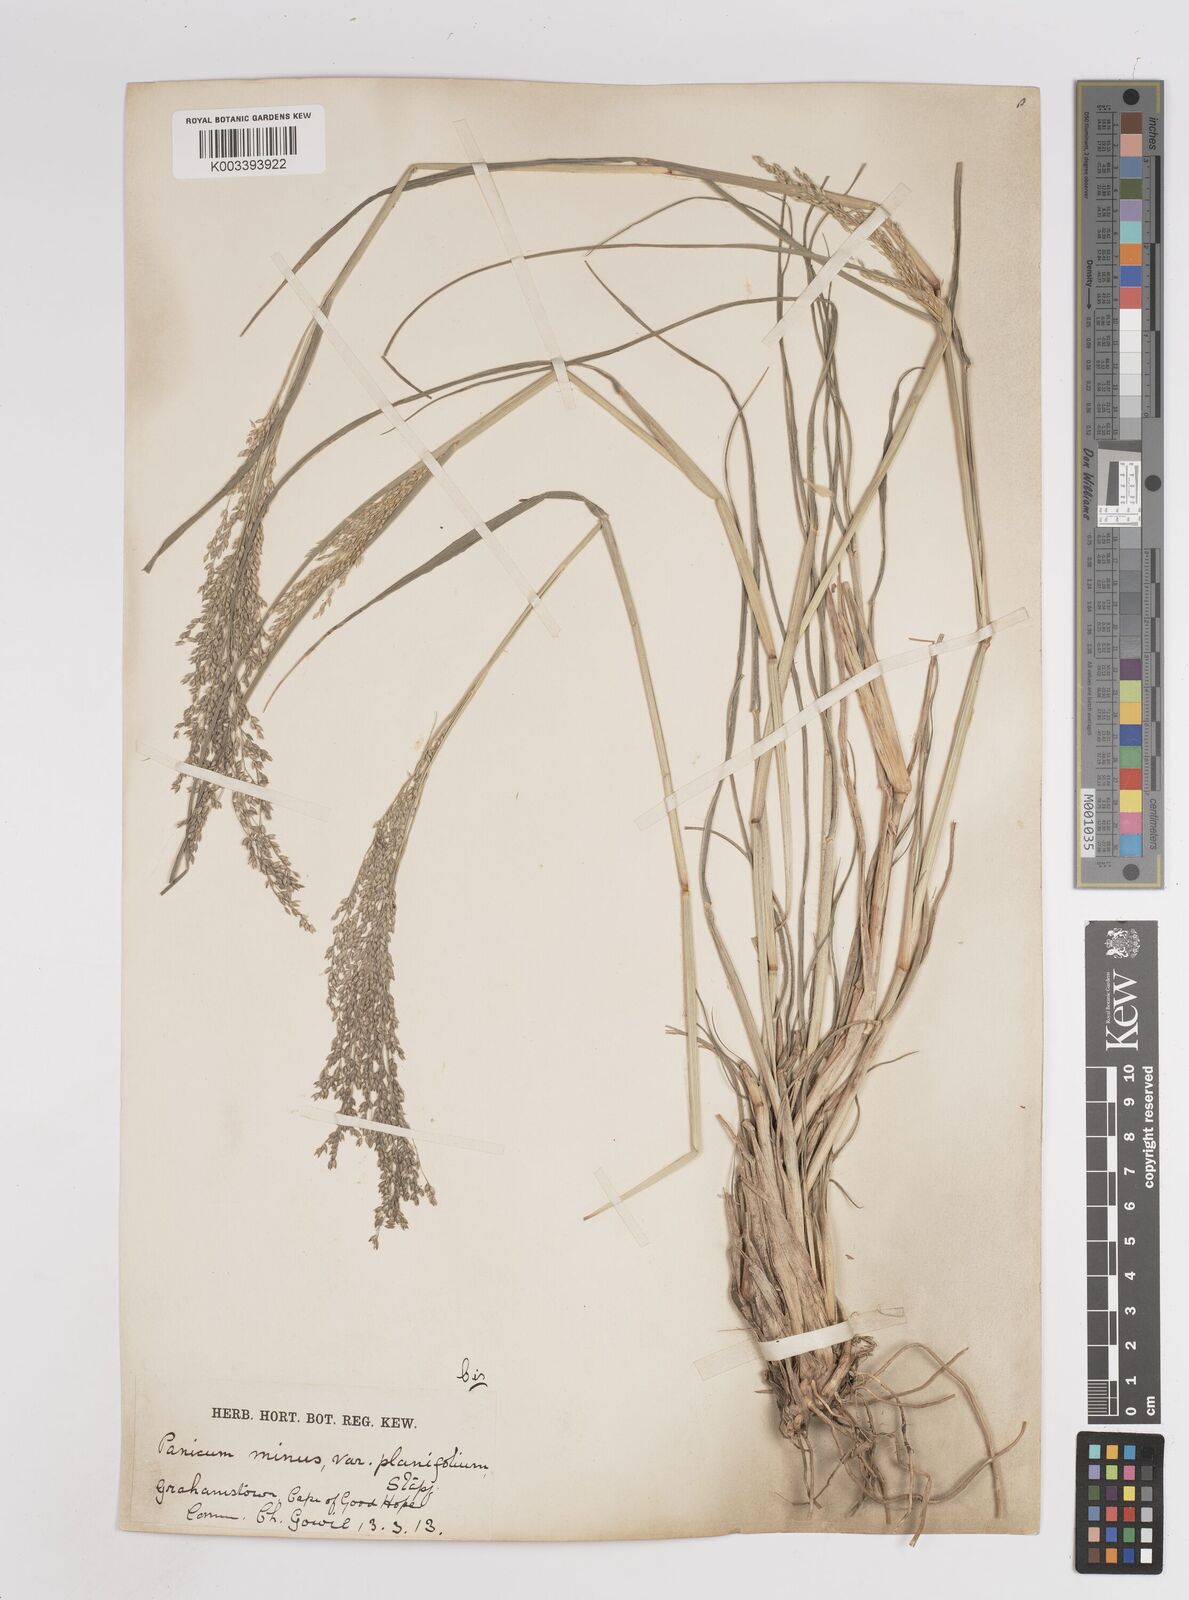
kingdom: Plantae
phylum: Tracheophyta
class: Liliopsida
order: Poales
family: Poaceae
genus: Panicum
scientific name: Panicum
